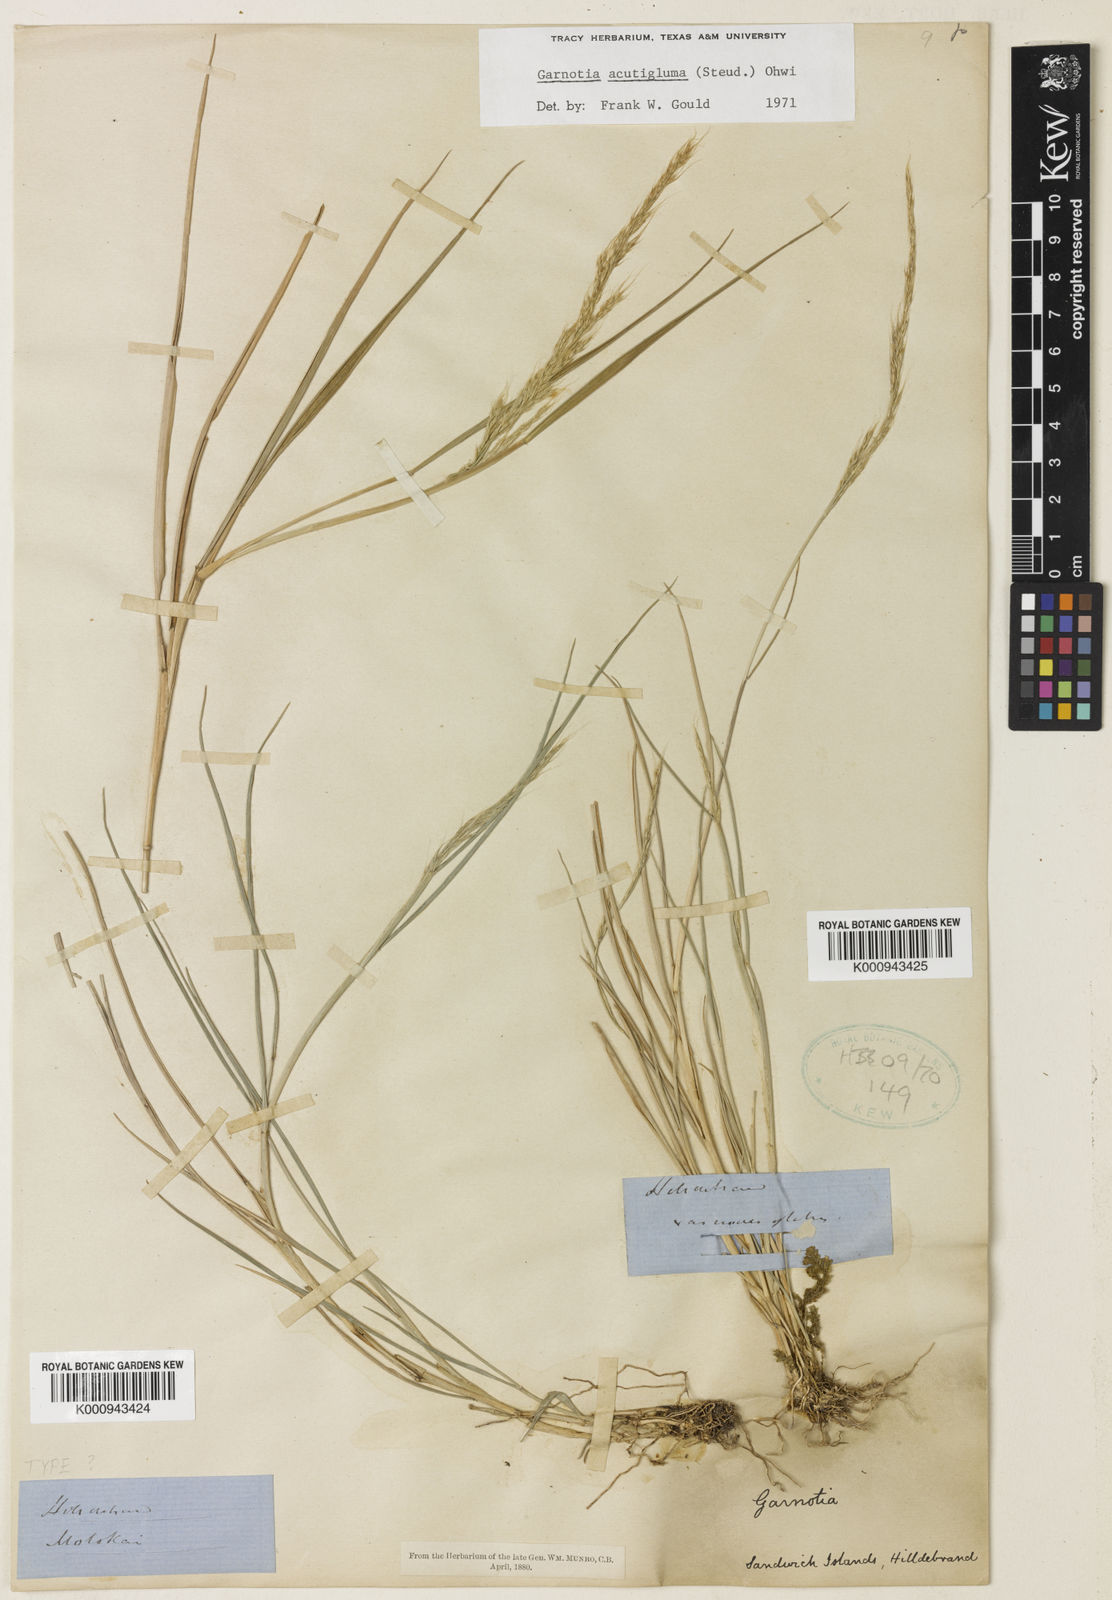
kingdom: Plantae
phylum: Tracheophyta
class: Liliopsida
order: Poales
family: Poaceae
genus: Garnotia
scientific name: Garnotia stricta
